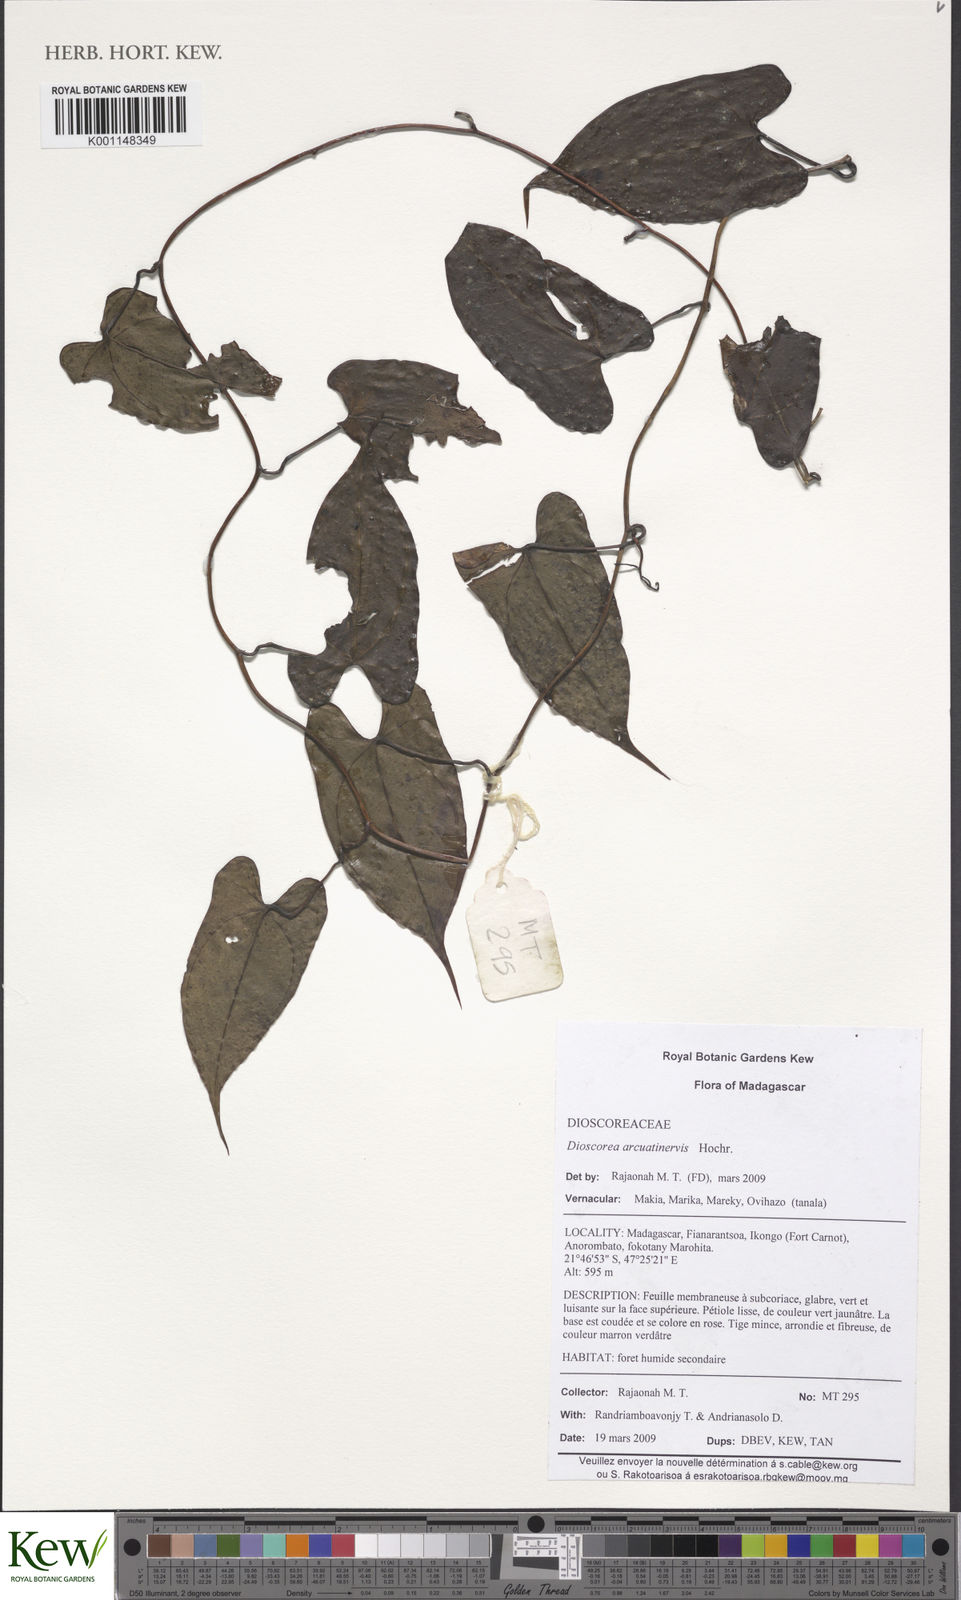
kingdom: Plantae
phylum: Tracheophyta
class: Liliopsida
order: Dioscoreales
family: Dioscoreaceae
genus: Dioscorea
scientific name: Dioscorea arcuatinervis
